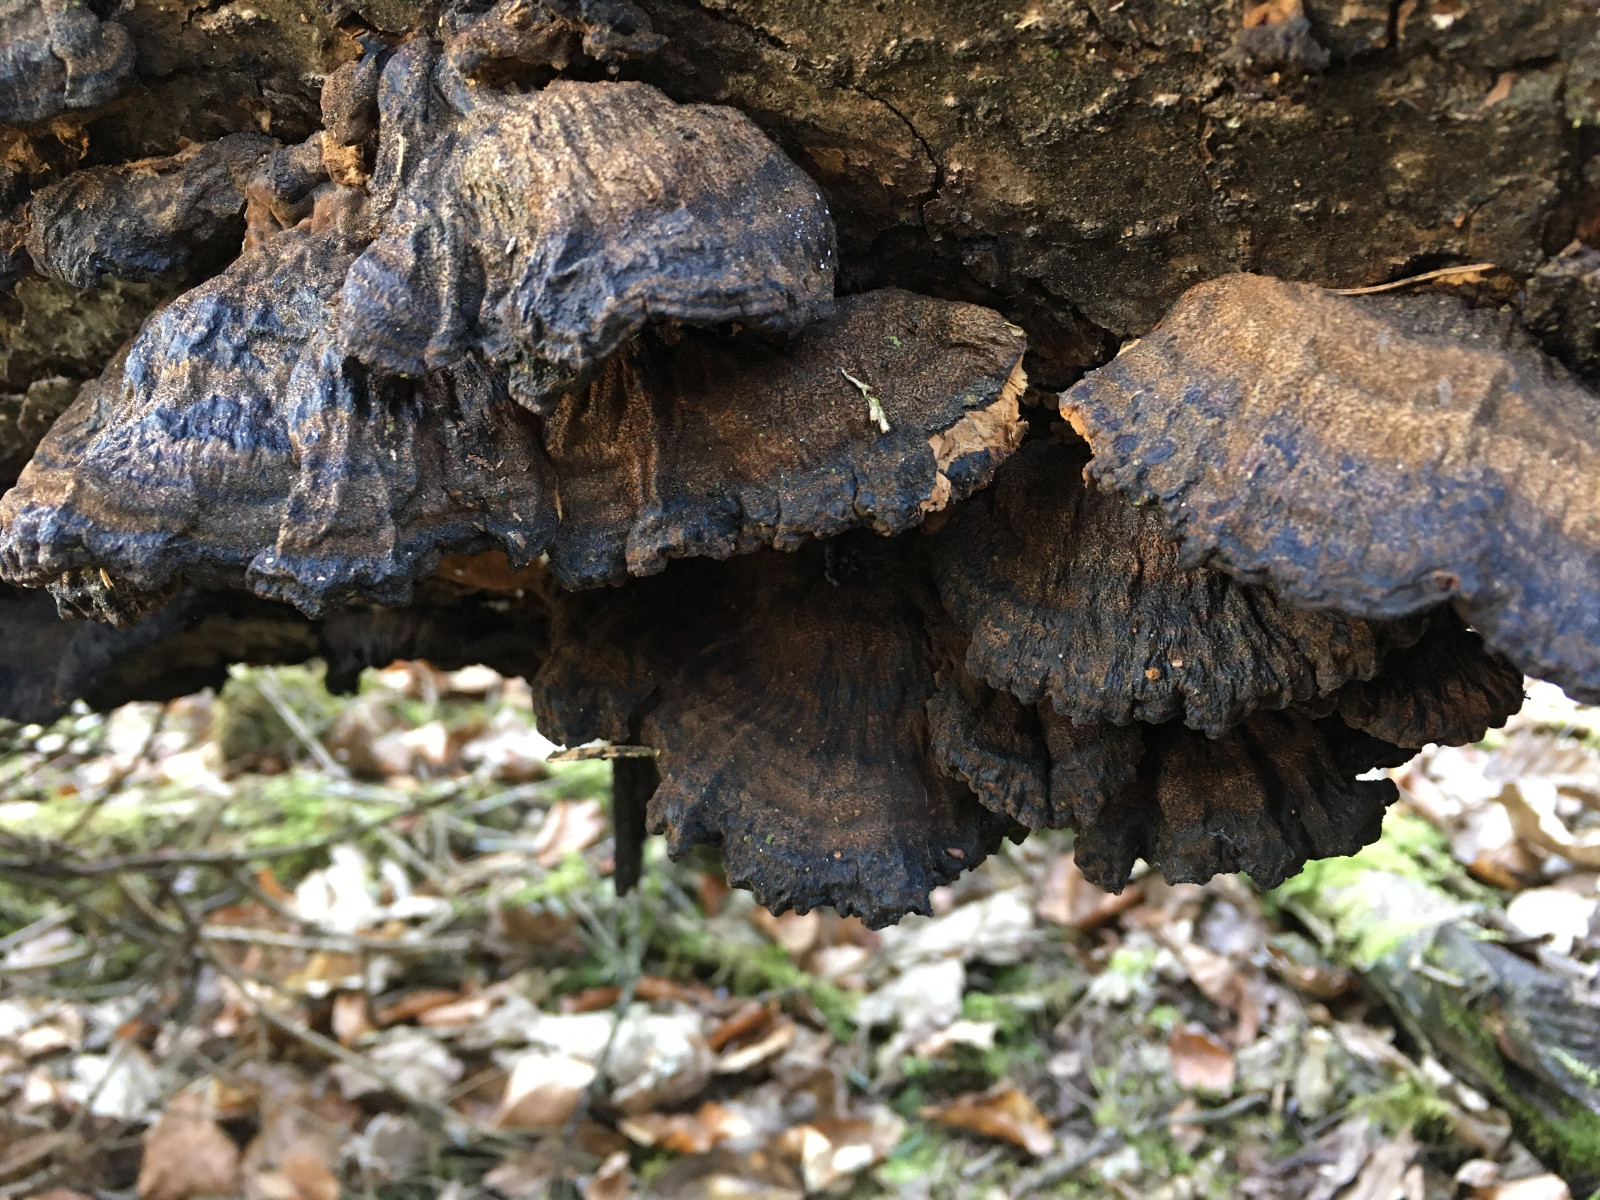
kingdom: Fungi
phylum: Basidiomycota
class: Agaricomycetes
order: Polyporales
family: Ischnodermataceae
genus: Ischnoderma
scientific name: Ischnoderma benzoinum
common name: gran-tjæreporesvamp
